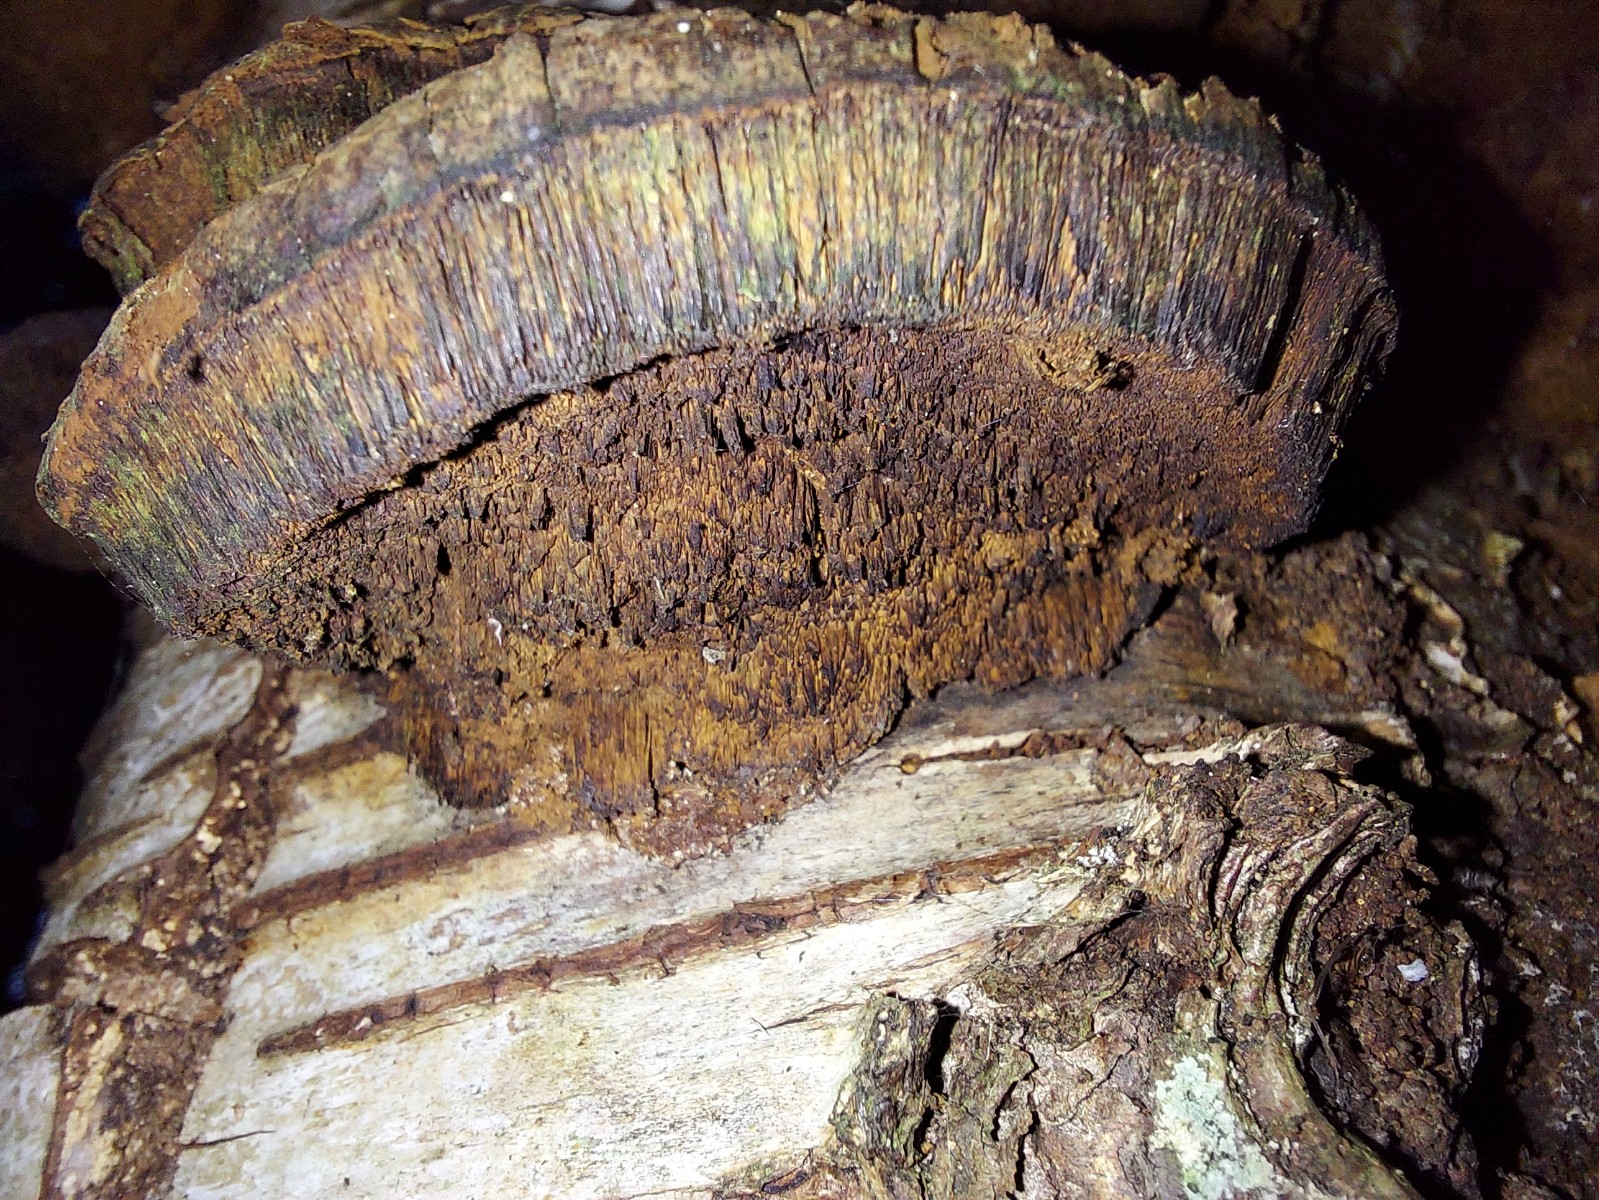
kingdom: Fungi
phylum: Basidiomycota
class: Agaricomycetes
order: Hymenochaetales
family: Hymenochaetaceae
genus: Xanthoporia
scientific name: Xanthoporia radiata
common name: elle-spejlporesvamp
